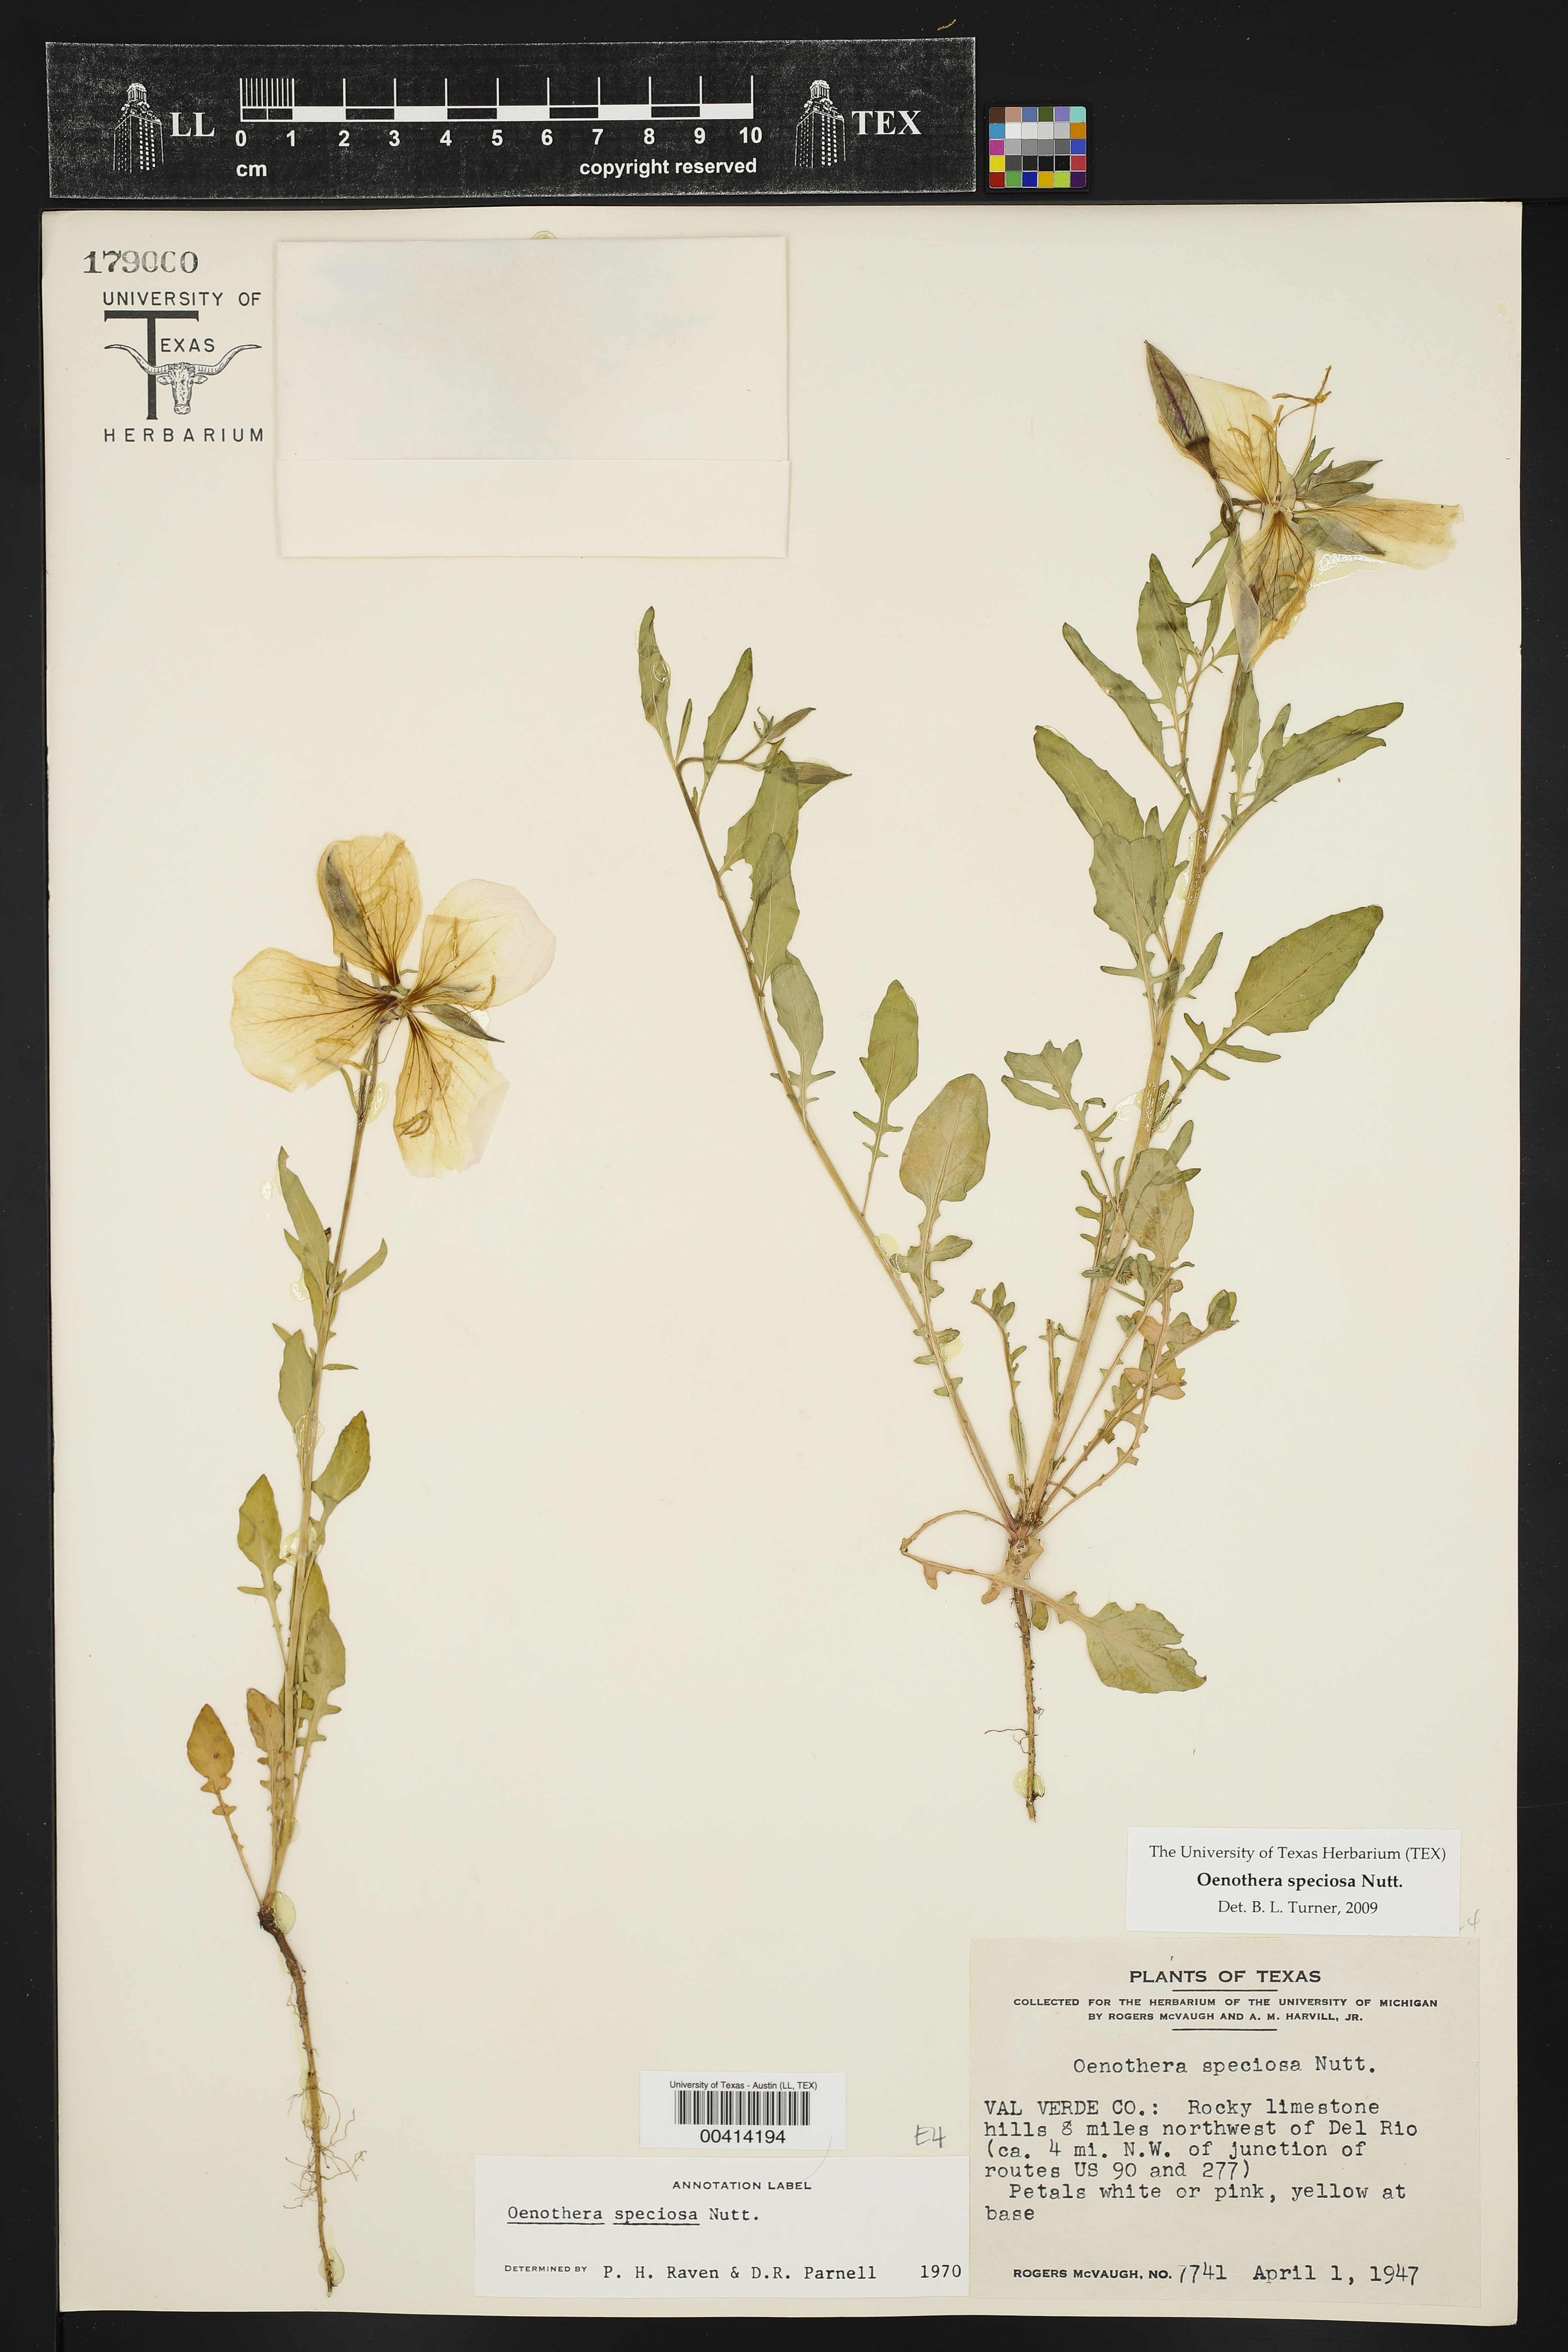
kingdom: Plantae
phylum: Tracheophyta
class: Magnoliopsida
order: Myrtales
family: Onagraceae
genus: Oenothera
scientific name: Oenothera speciosa
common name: White evening-primrose
